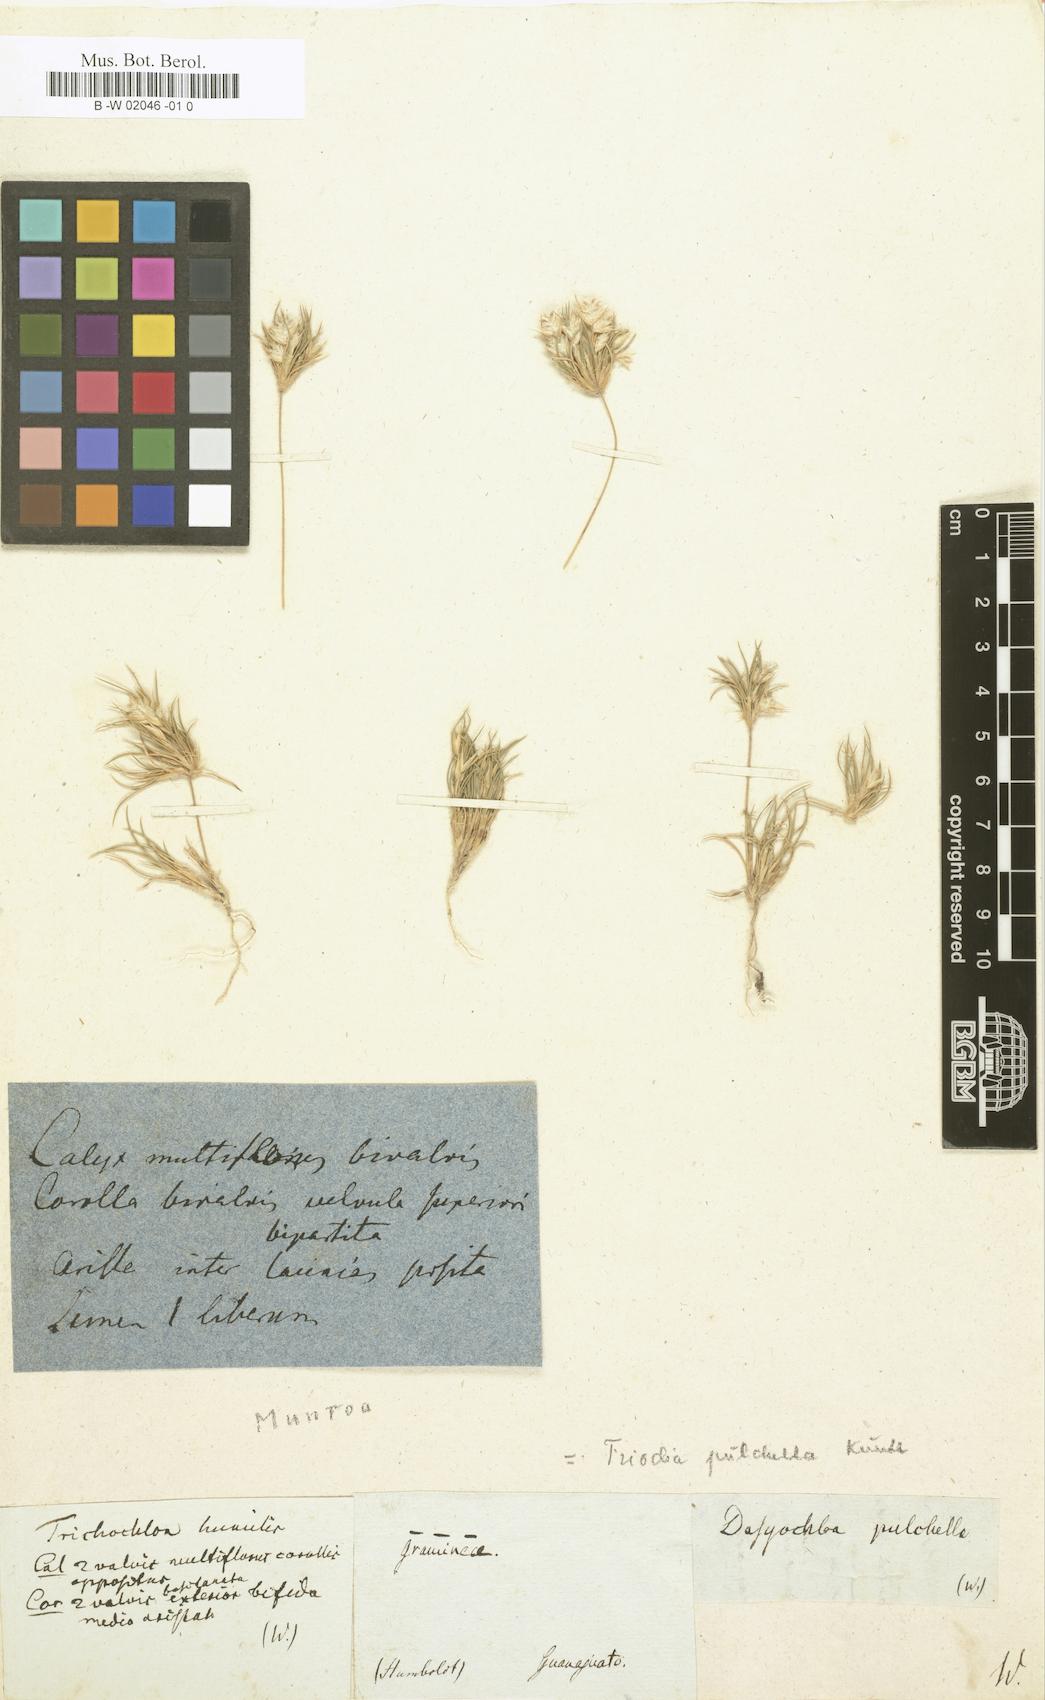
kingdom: Plantae
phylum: Tracheophyta
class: Liliopsida
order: Poales
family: Poaceae
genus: Dasyochloa
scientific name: Dasyochloa pulchella
